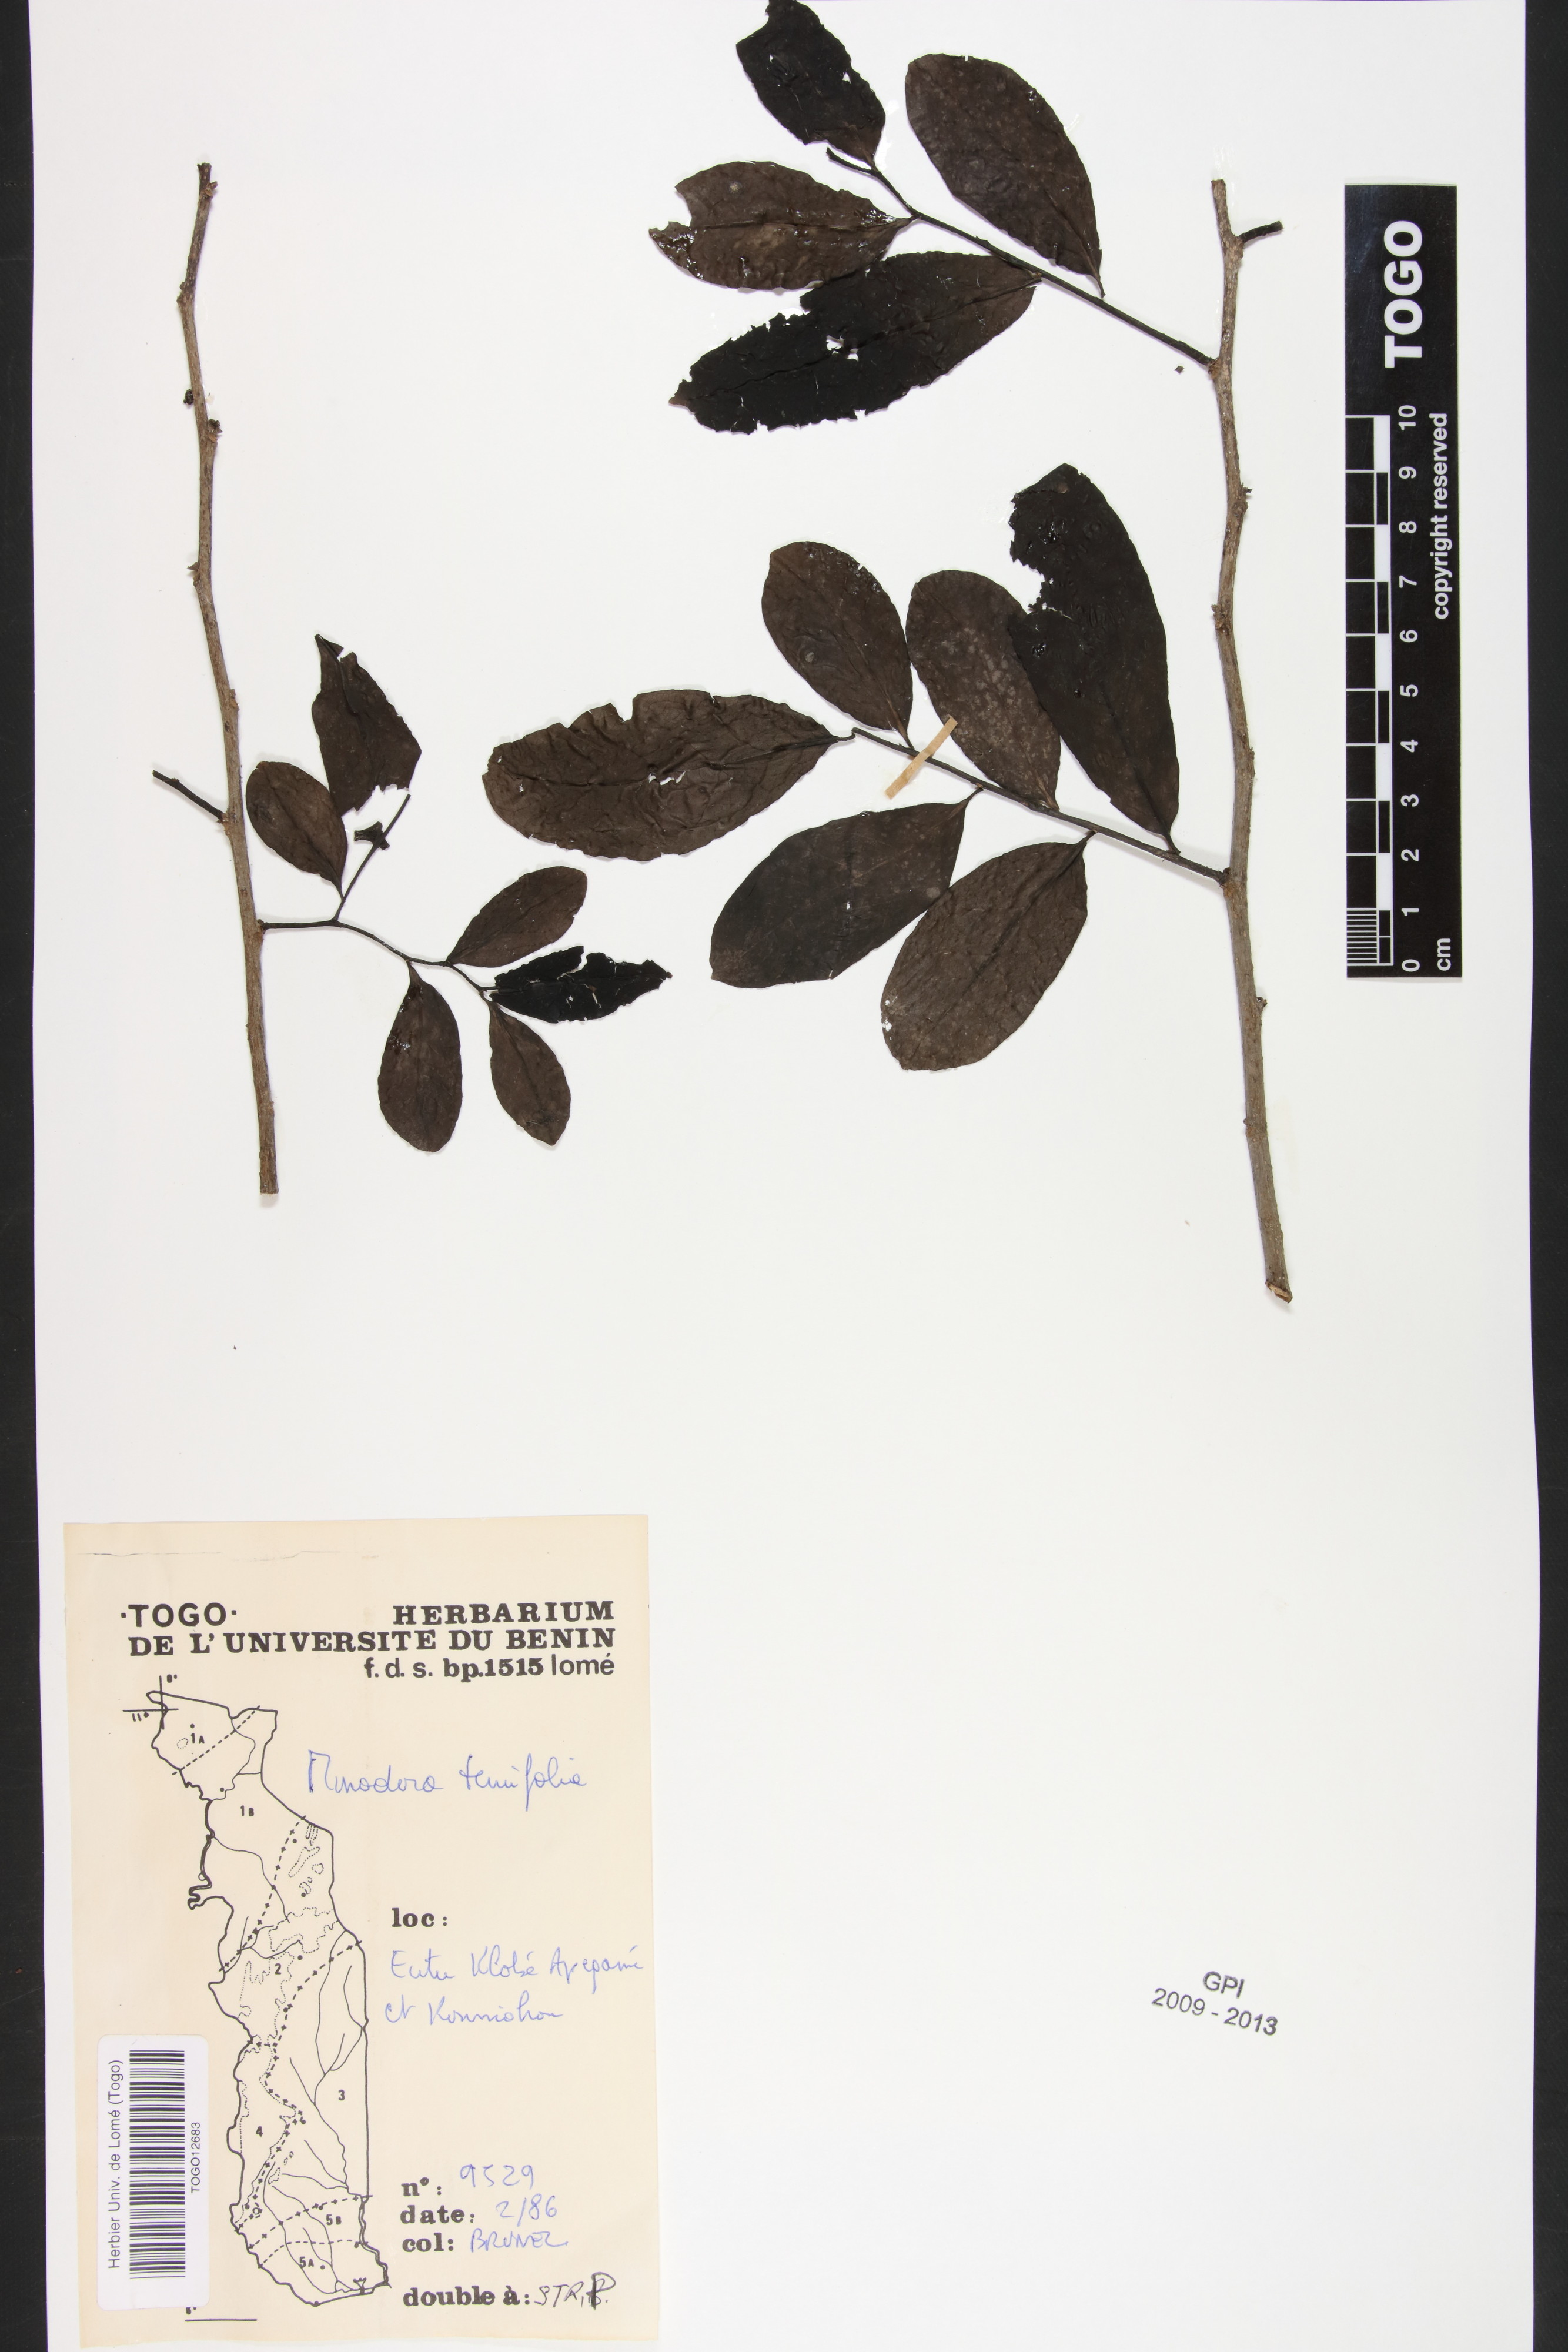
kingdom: Plantae
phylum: Tracheophyta
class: Magnoliopsida
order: Magnoliales
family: Annonaceae
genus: Monodora
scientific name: Monodora tenuifolia
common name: Orchidtree
